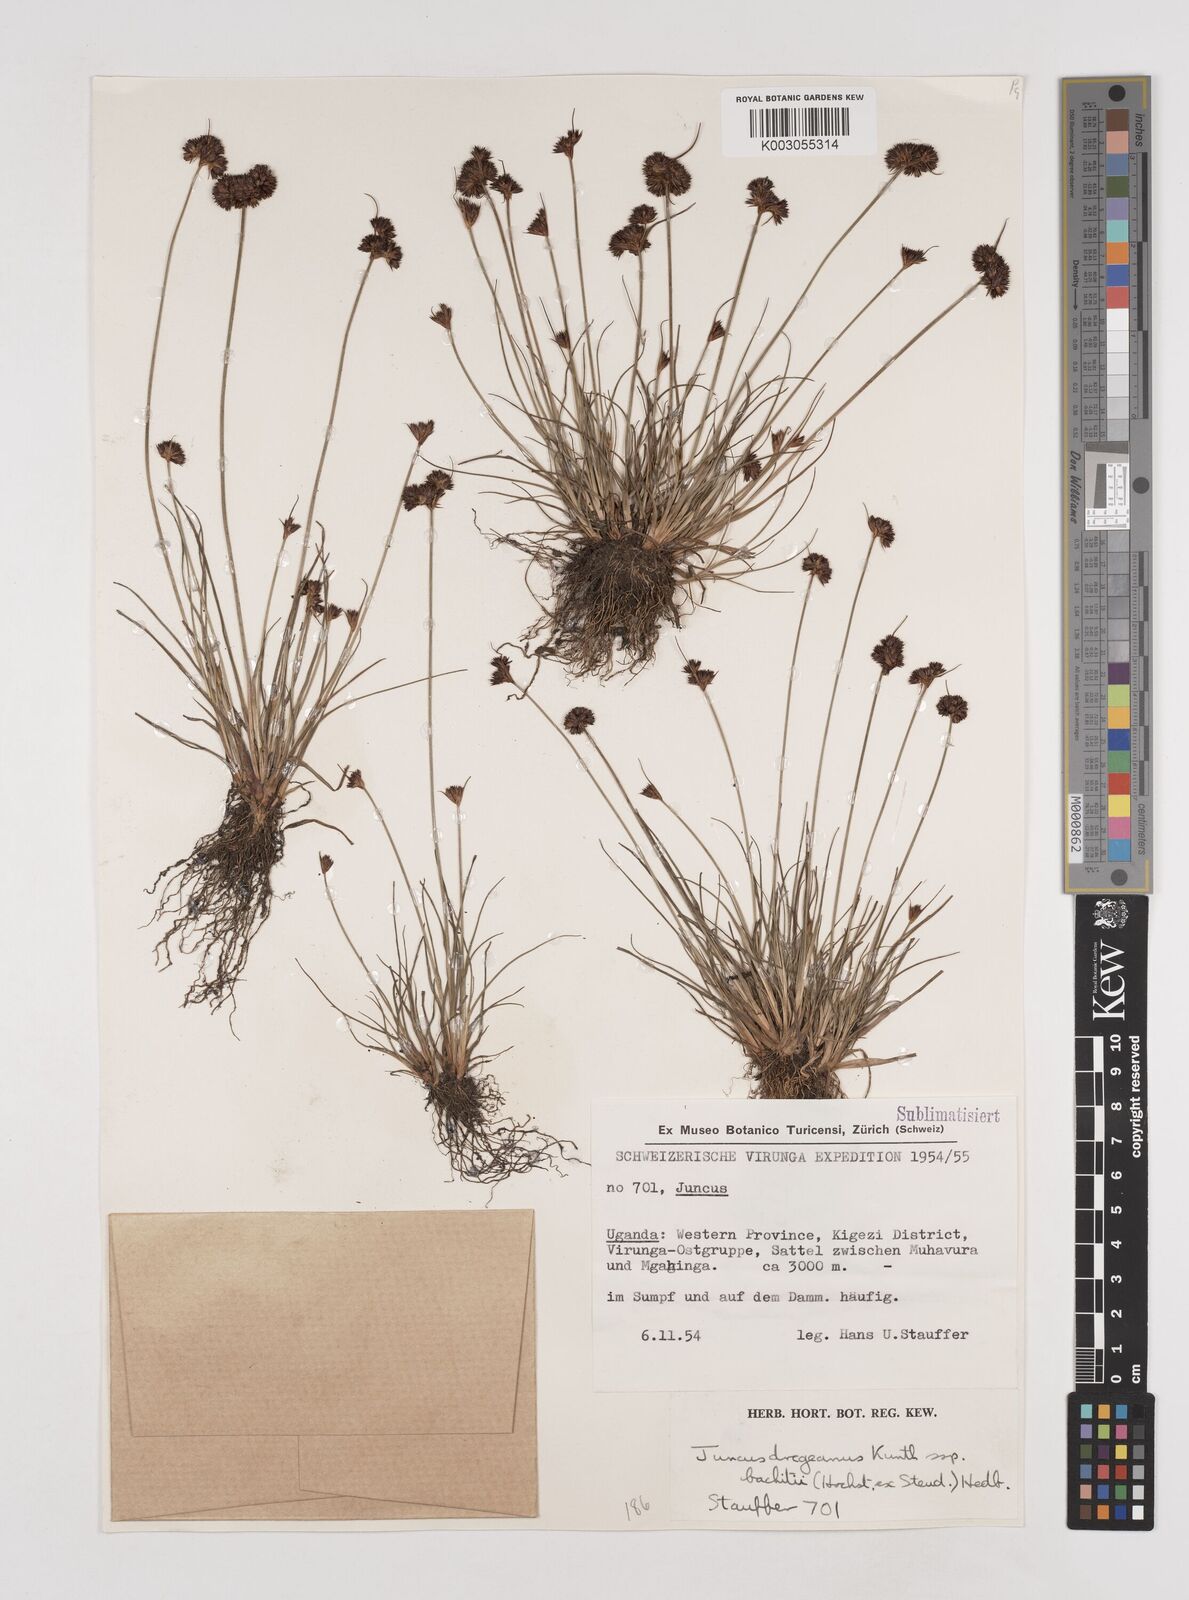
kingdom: Plantae
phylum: Tracheophyta
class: Liliopsida
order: Poales
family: Juncaceae
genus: Juncus
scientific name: Juncus dregeanus
